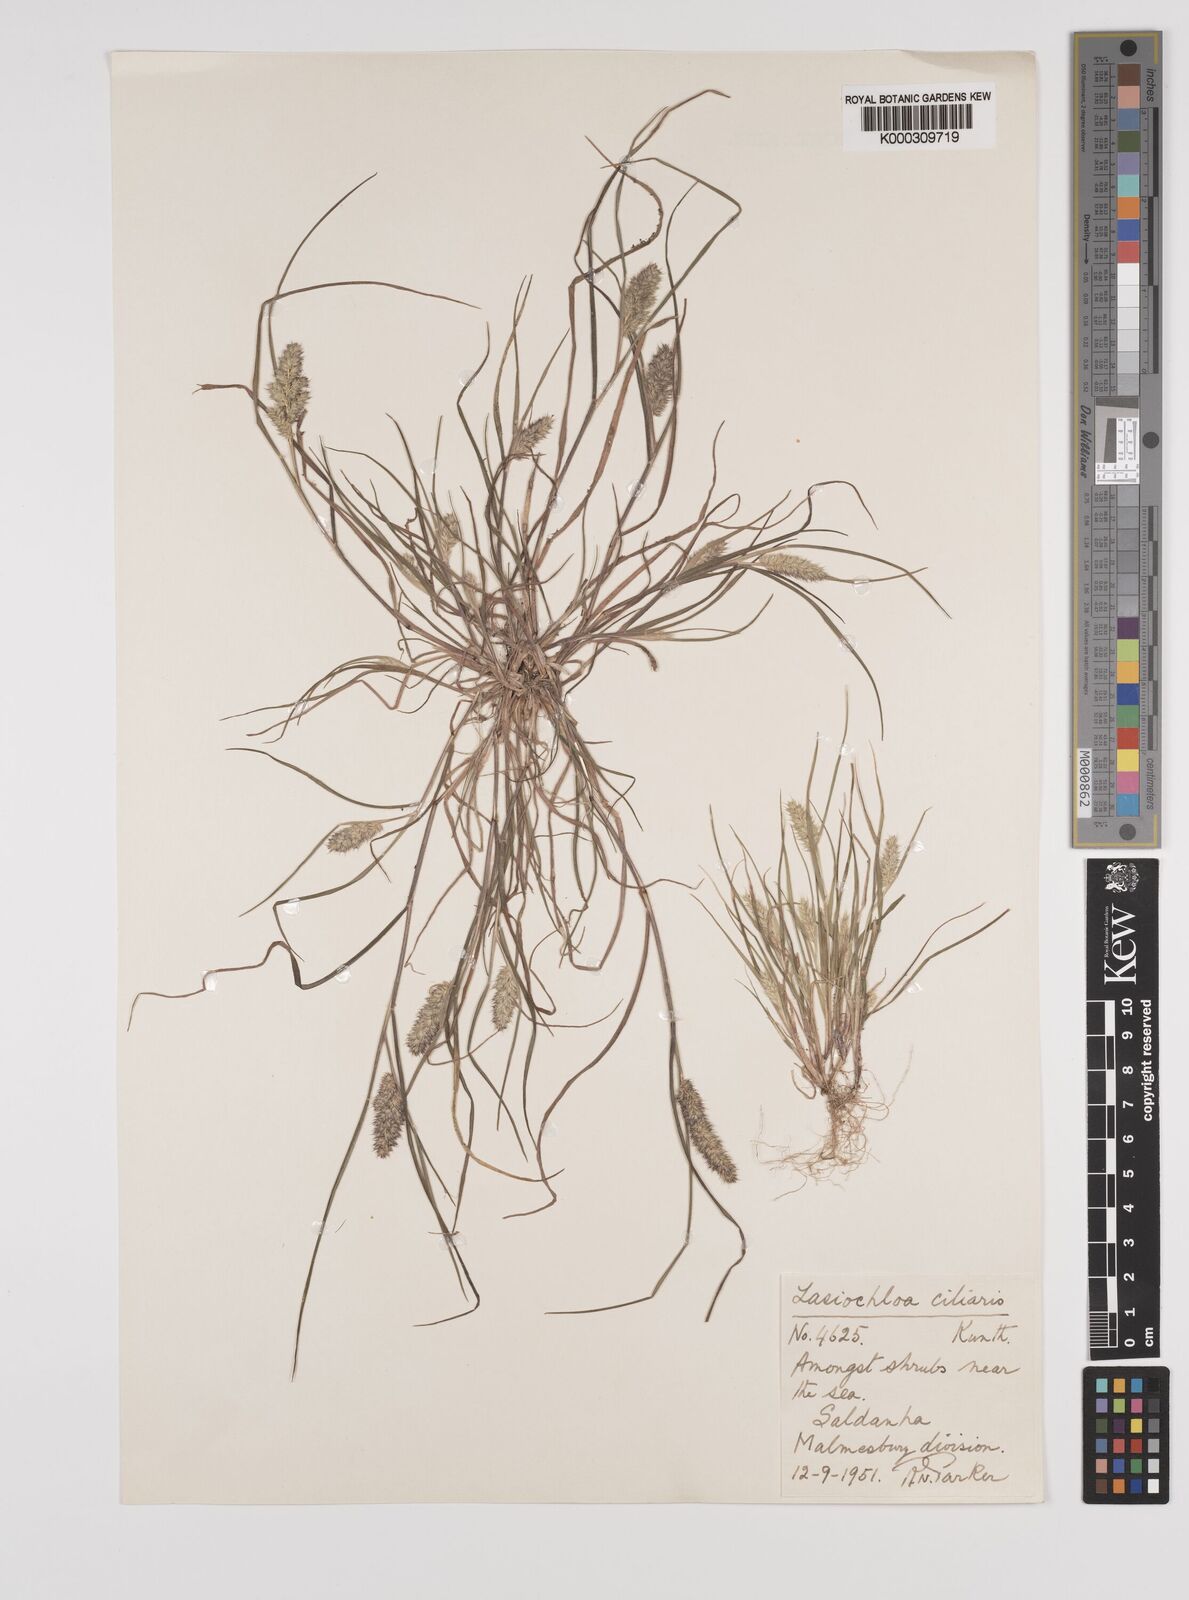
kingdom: Plantae
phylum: Tracheophyta
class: Liliopsida
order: Poales
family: Poaceae
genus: Tribolium
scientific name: Tribolium echinatum
